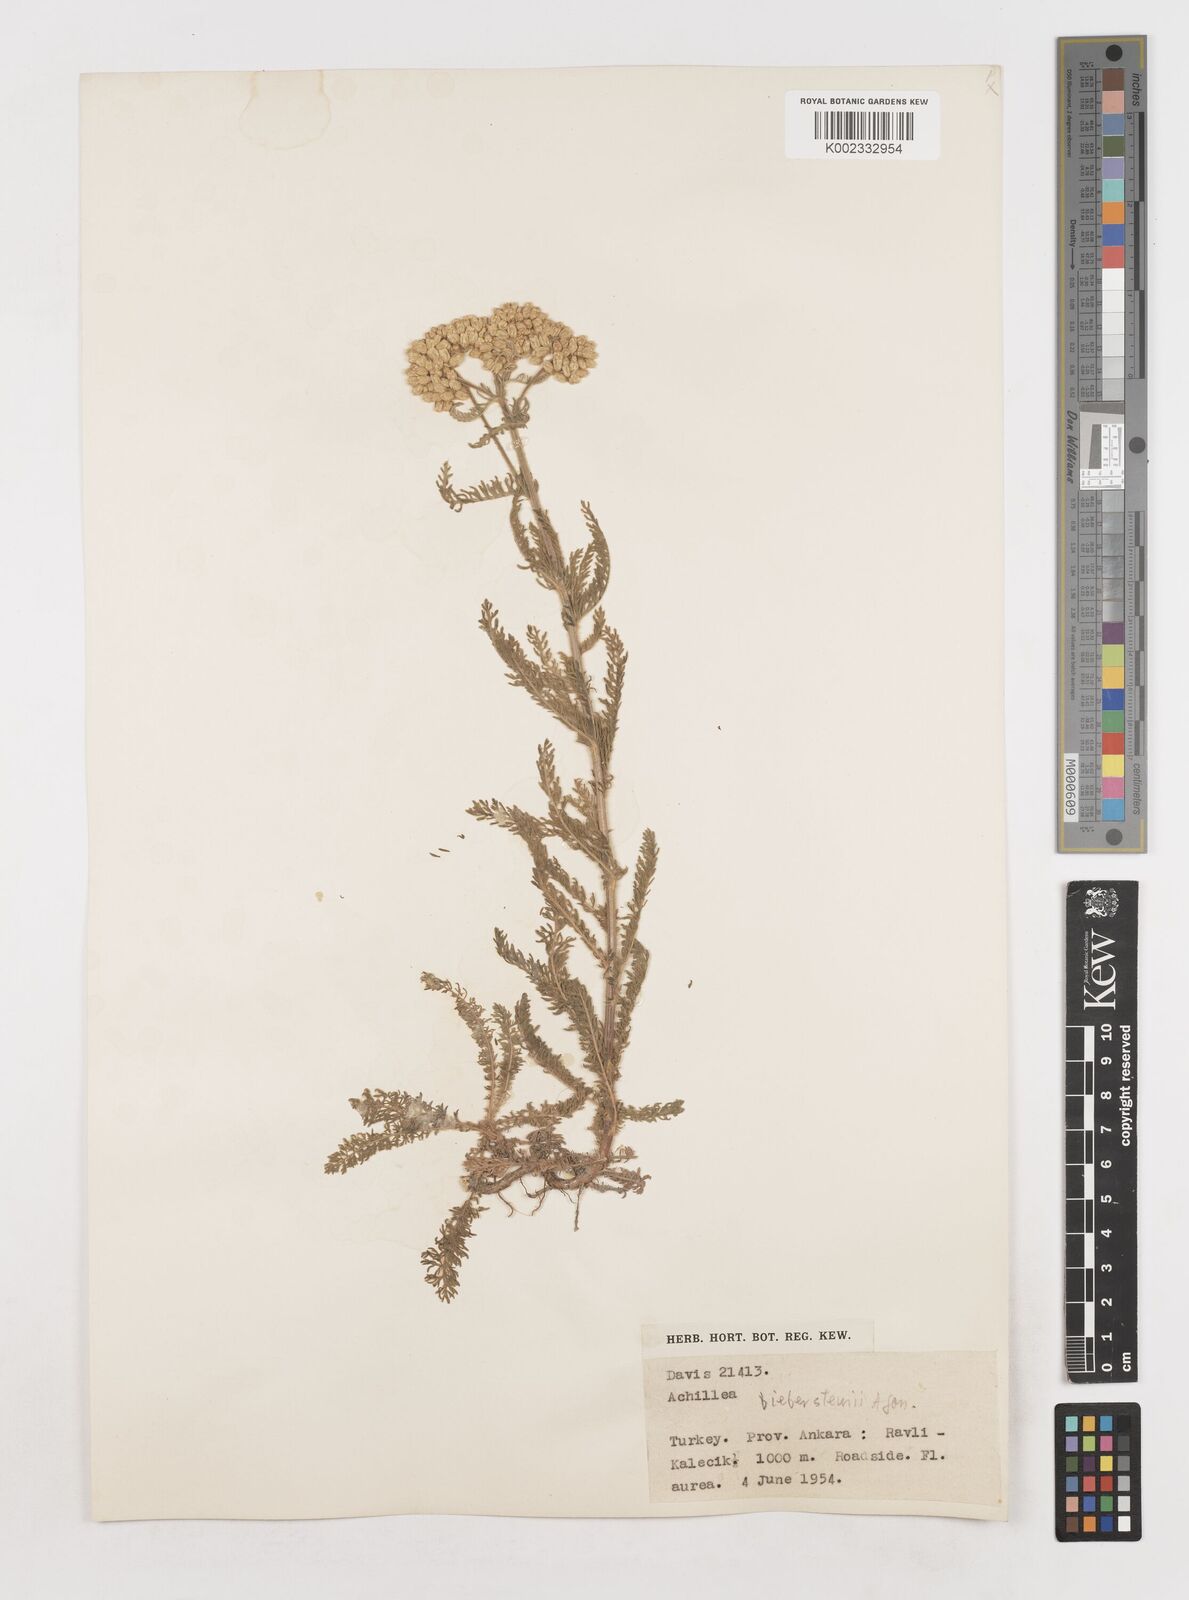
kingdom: Plantae
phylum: Tracheophyta
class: Magnoliopsida
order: Asterales
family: Asteraceae
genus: Achillea
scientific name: Achillea arabica
